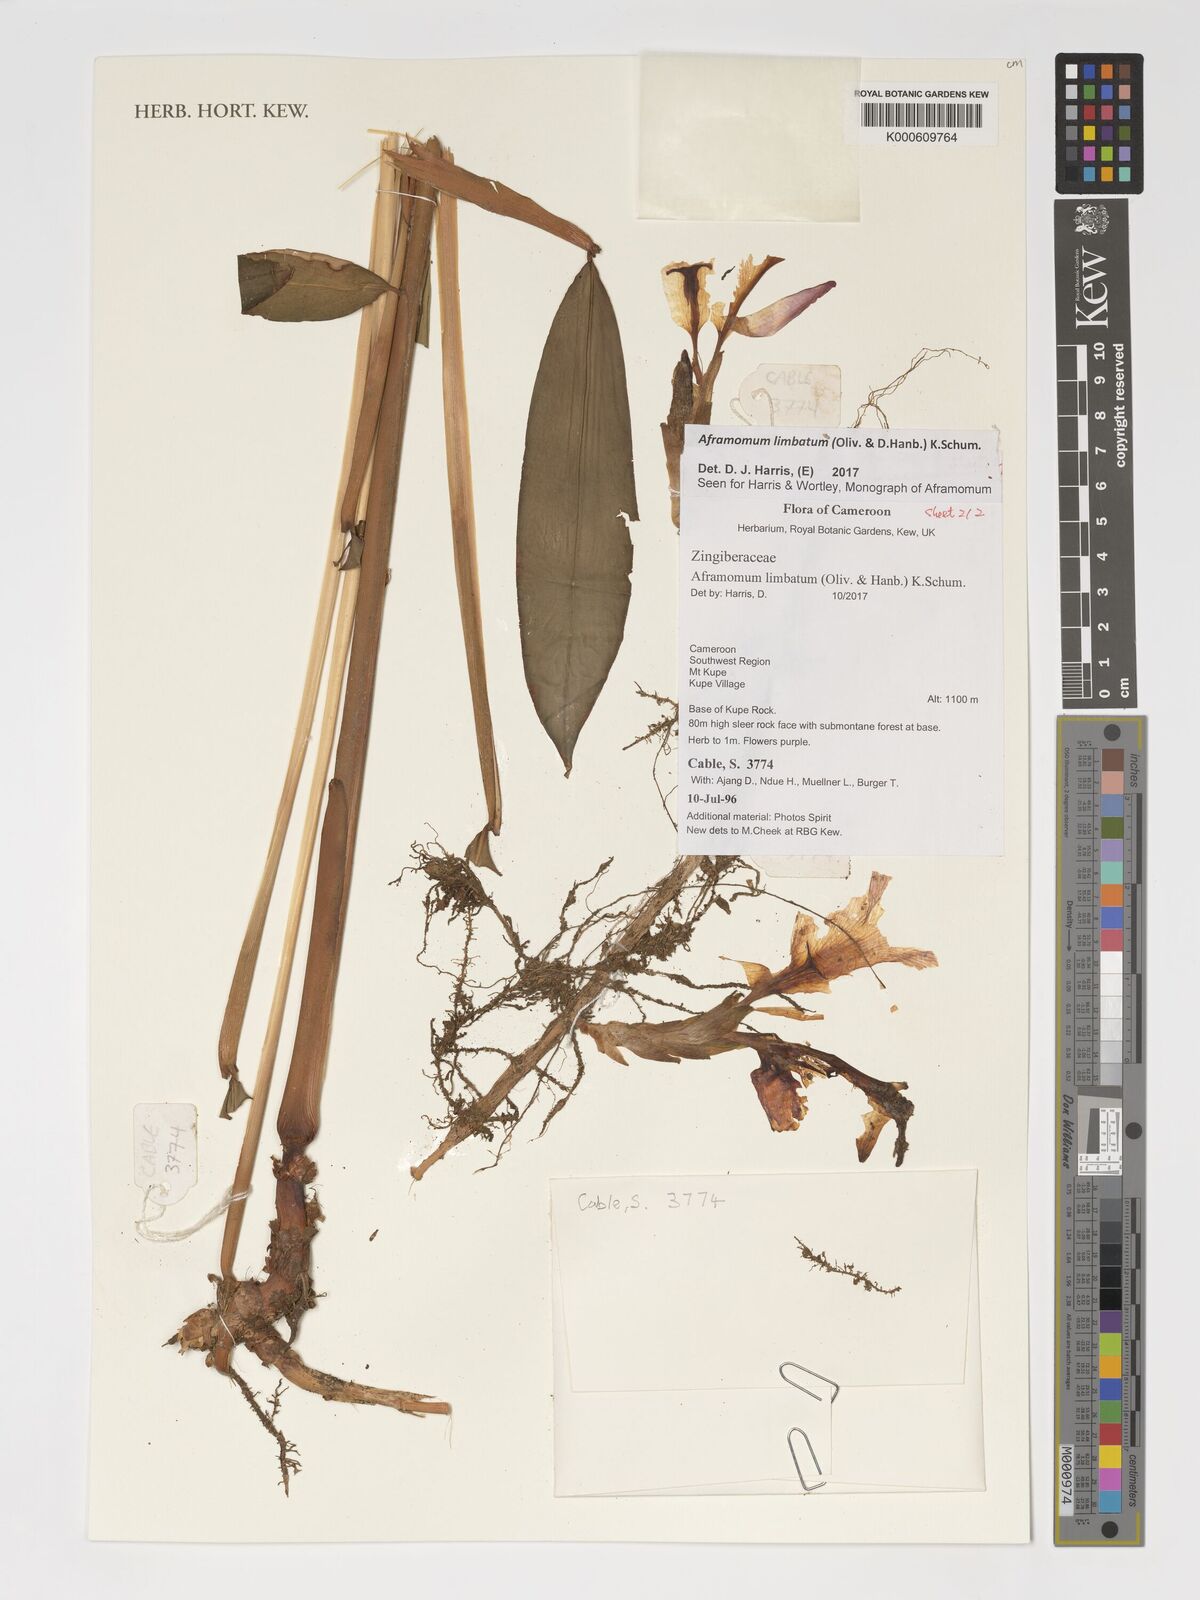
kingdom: Plantae
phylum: Tracheophyta
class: Liliopsida
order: Zingiberales
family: Zingiberaceae
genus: Aframomum
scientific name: Aframomum limbatum
